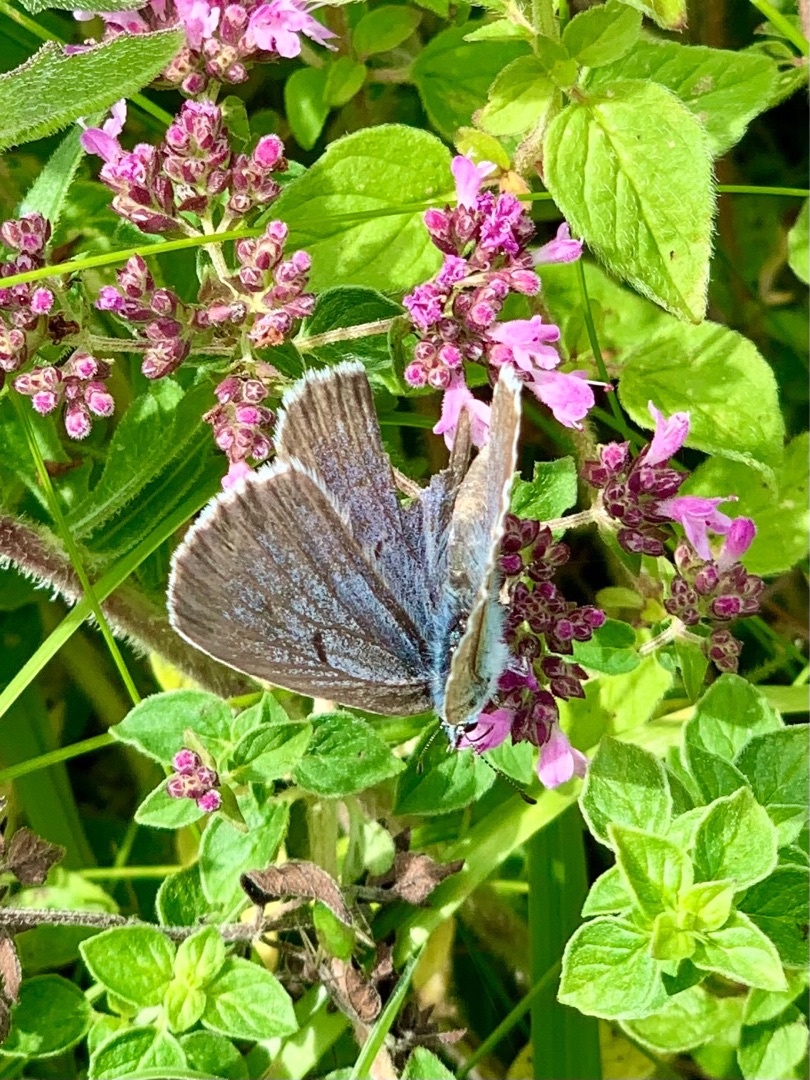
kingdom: Animalia
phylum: Arthropoda
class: Insecta
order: Lepidoptera
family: Lycaenidae
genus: Maculinea
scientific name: Maculinea arion
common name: Sortplettet blåfugl
